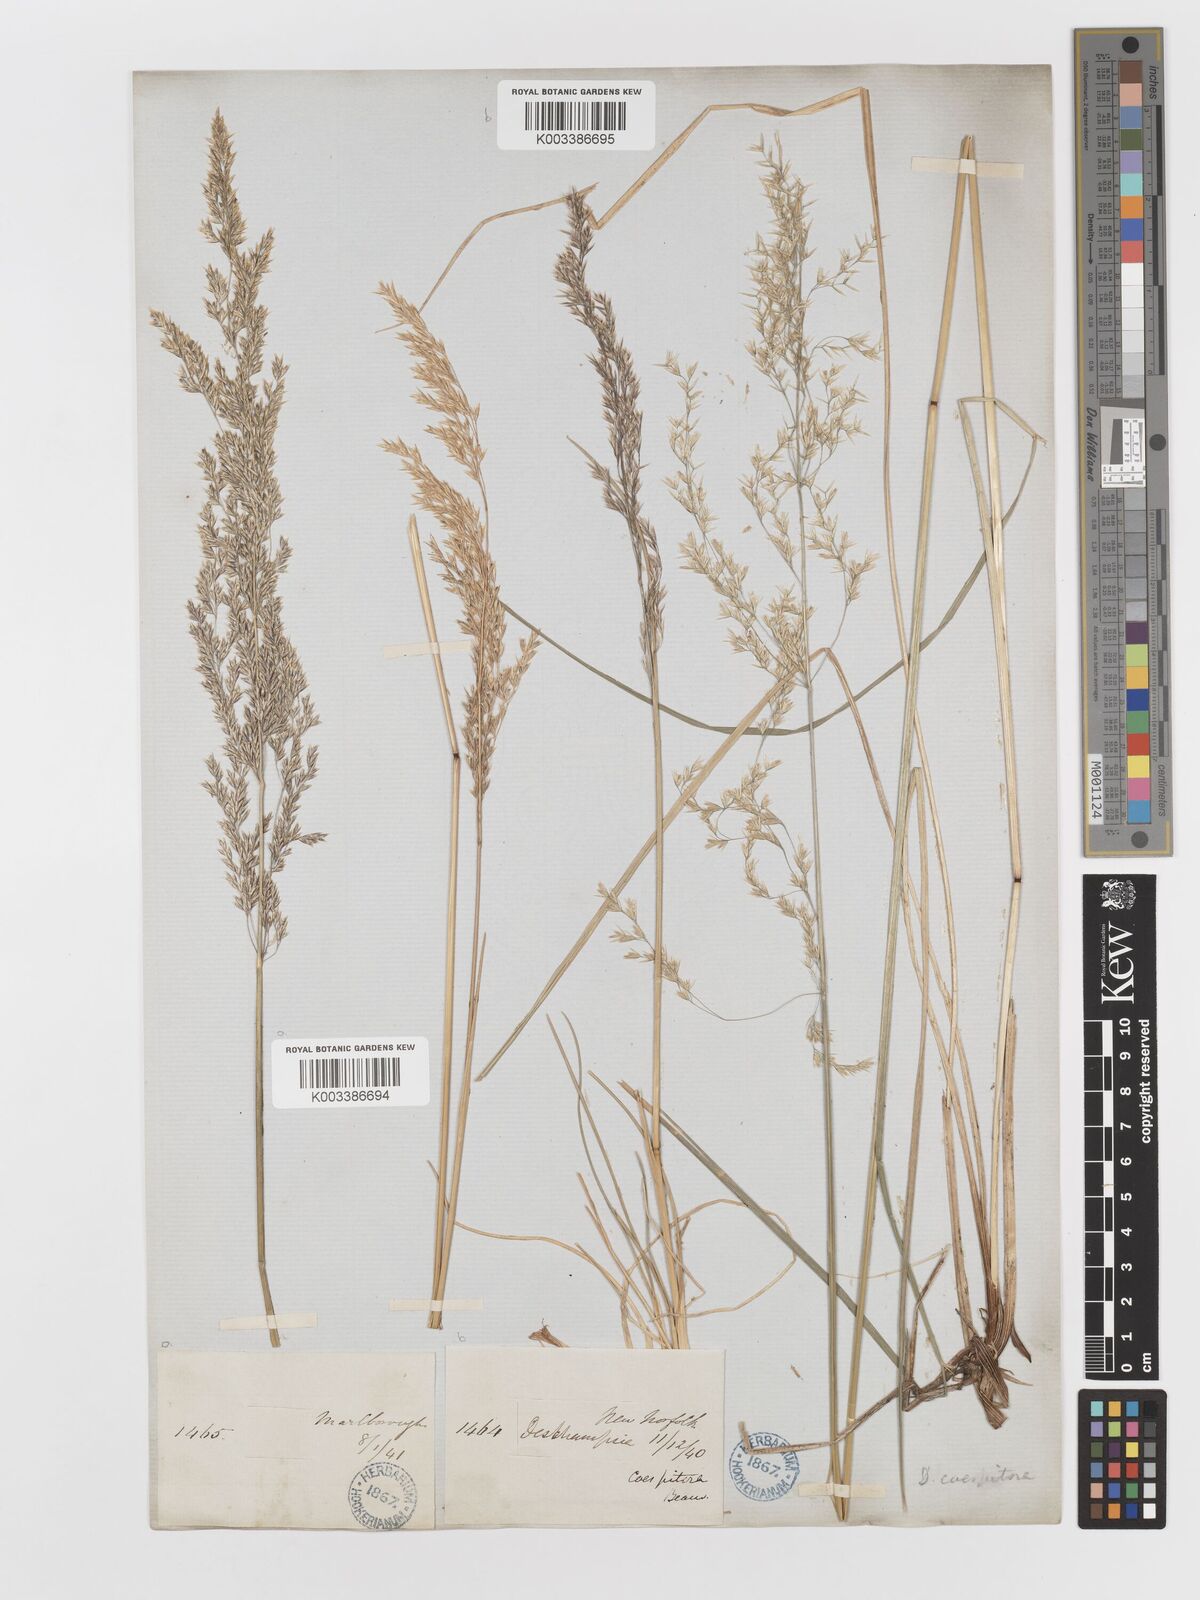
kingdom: Plantae
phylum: Tracheophyta
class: Liliopsida
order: Poales
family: Poaceae
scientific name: Poaceae
